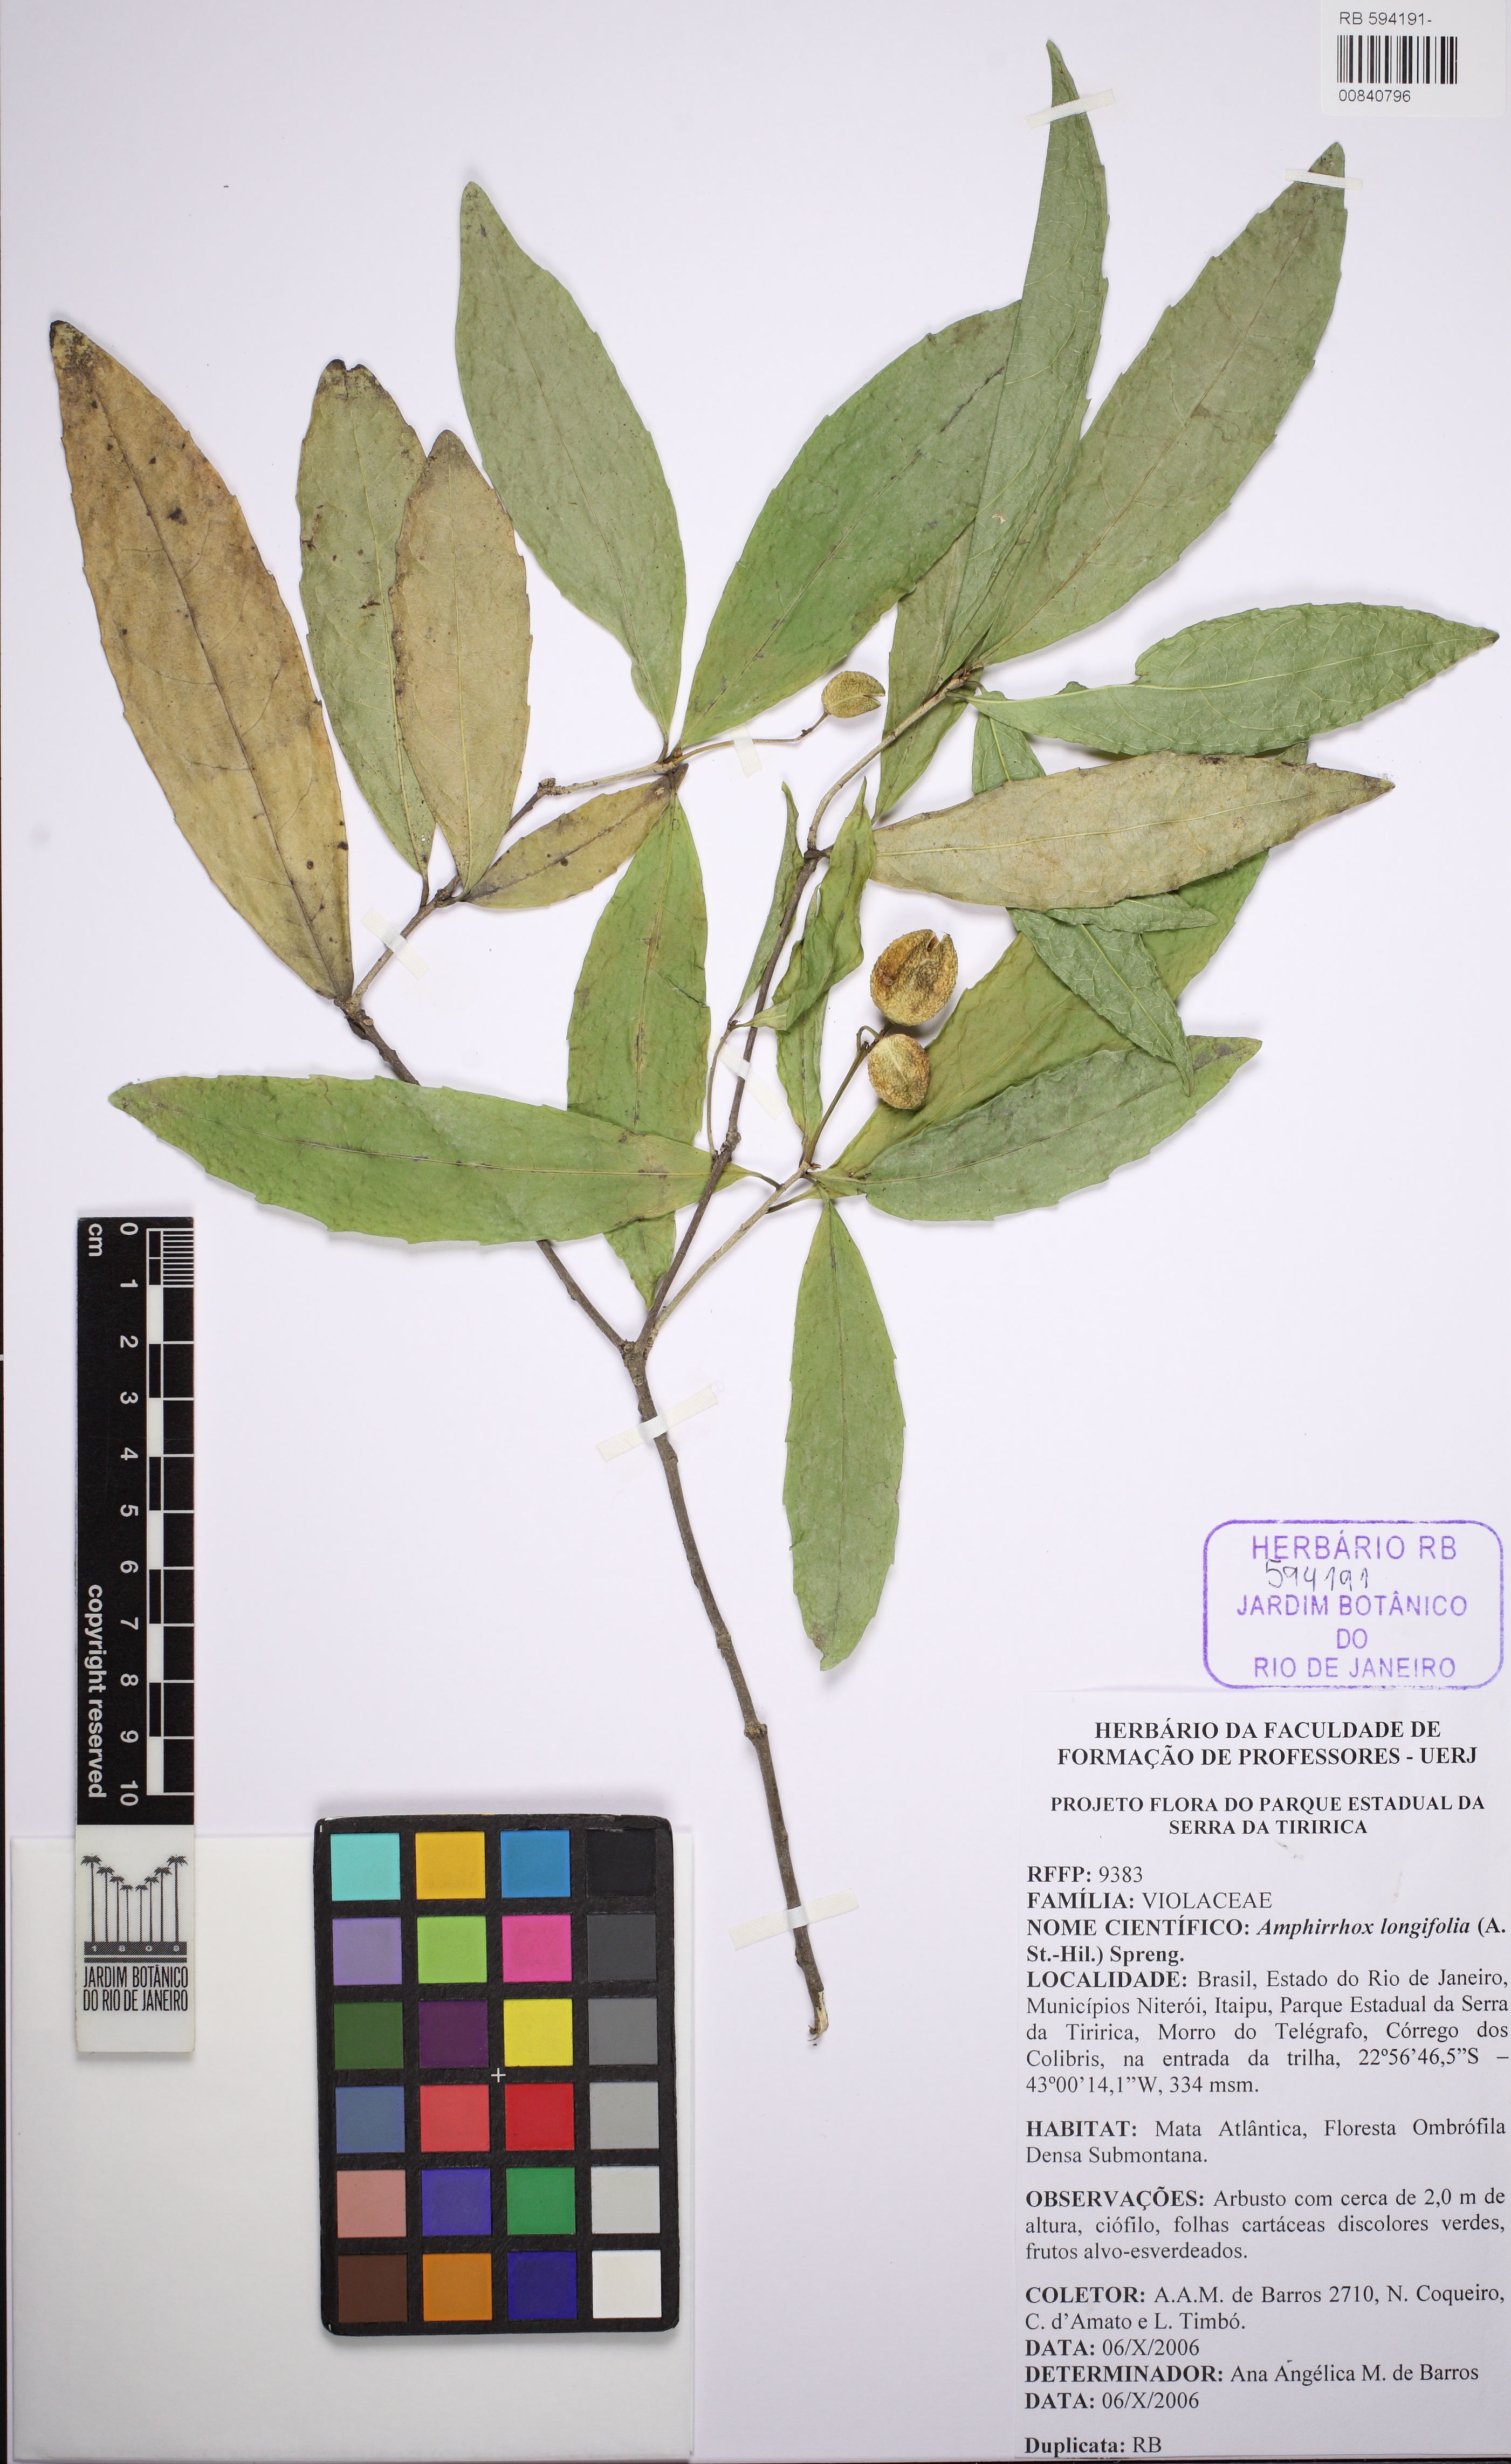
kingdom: Plantae
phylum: Tracheophyta
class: Magnoliopsida
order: Malpighiales
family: Violaceae
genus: Amphirrhox
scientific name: Amphirrhox longifolia
